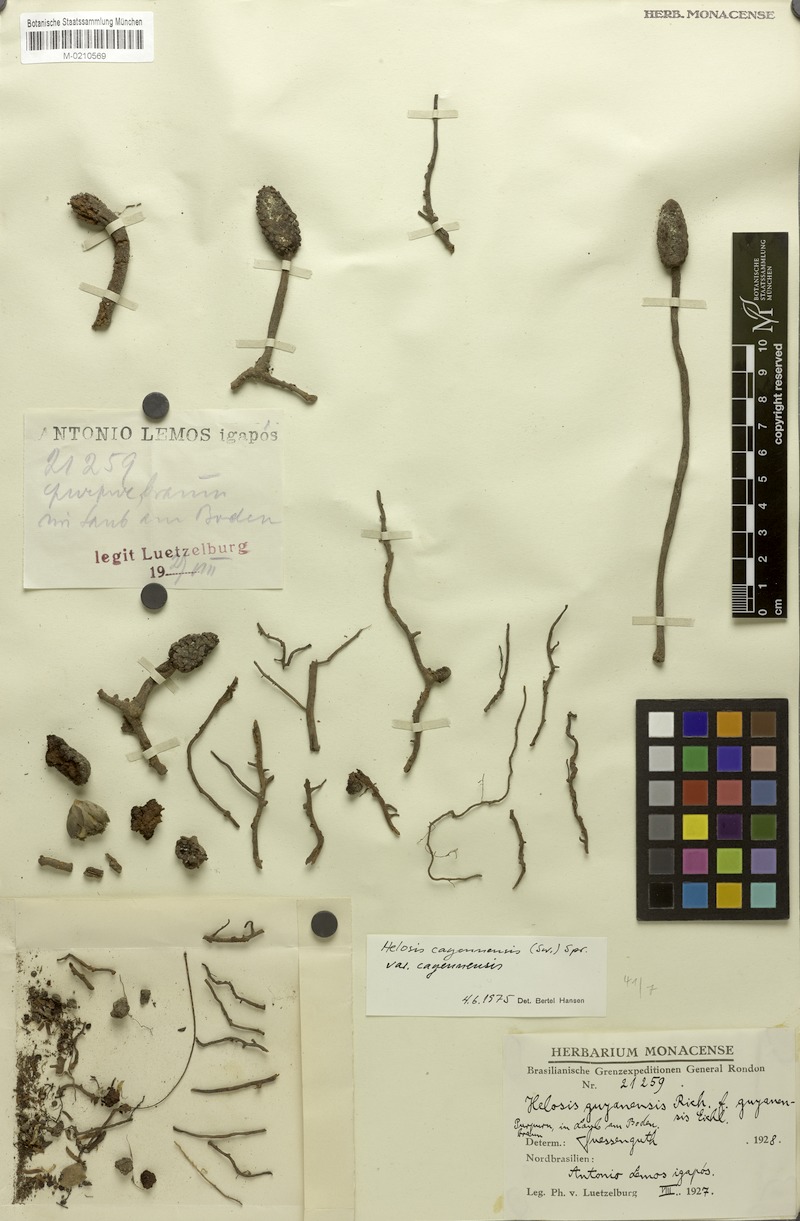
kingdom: Plantae
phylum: Tracheophyta
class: Magnoliopsida
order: Santalales
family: Balanophoraceae
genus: Helosis
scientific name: Helosis cayennensis
